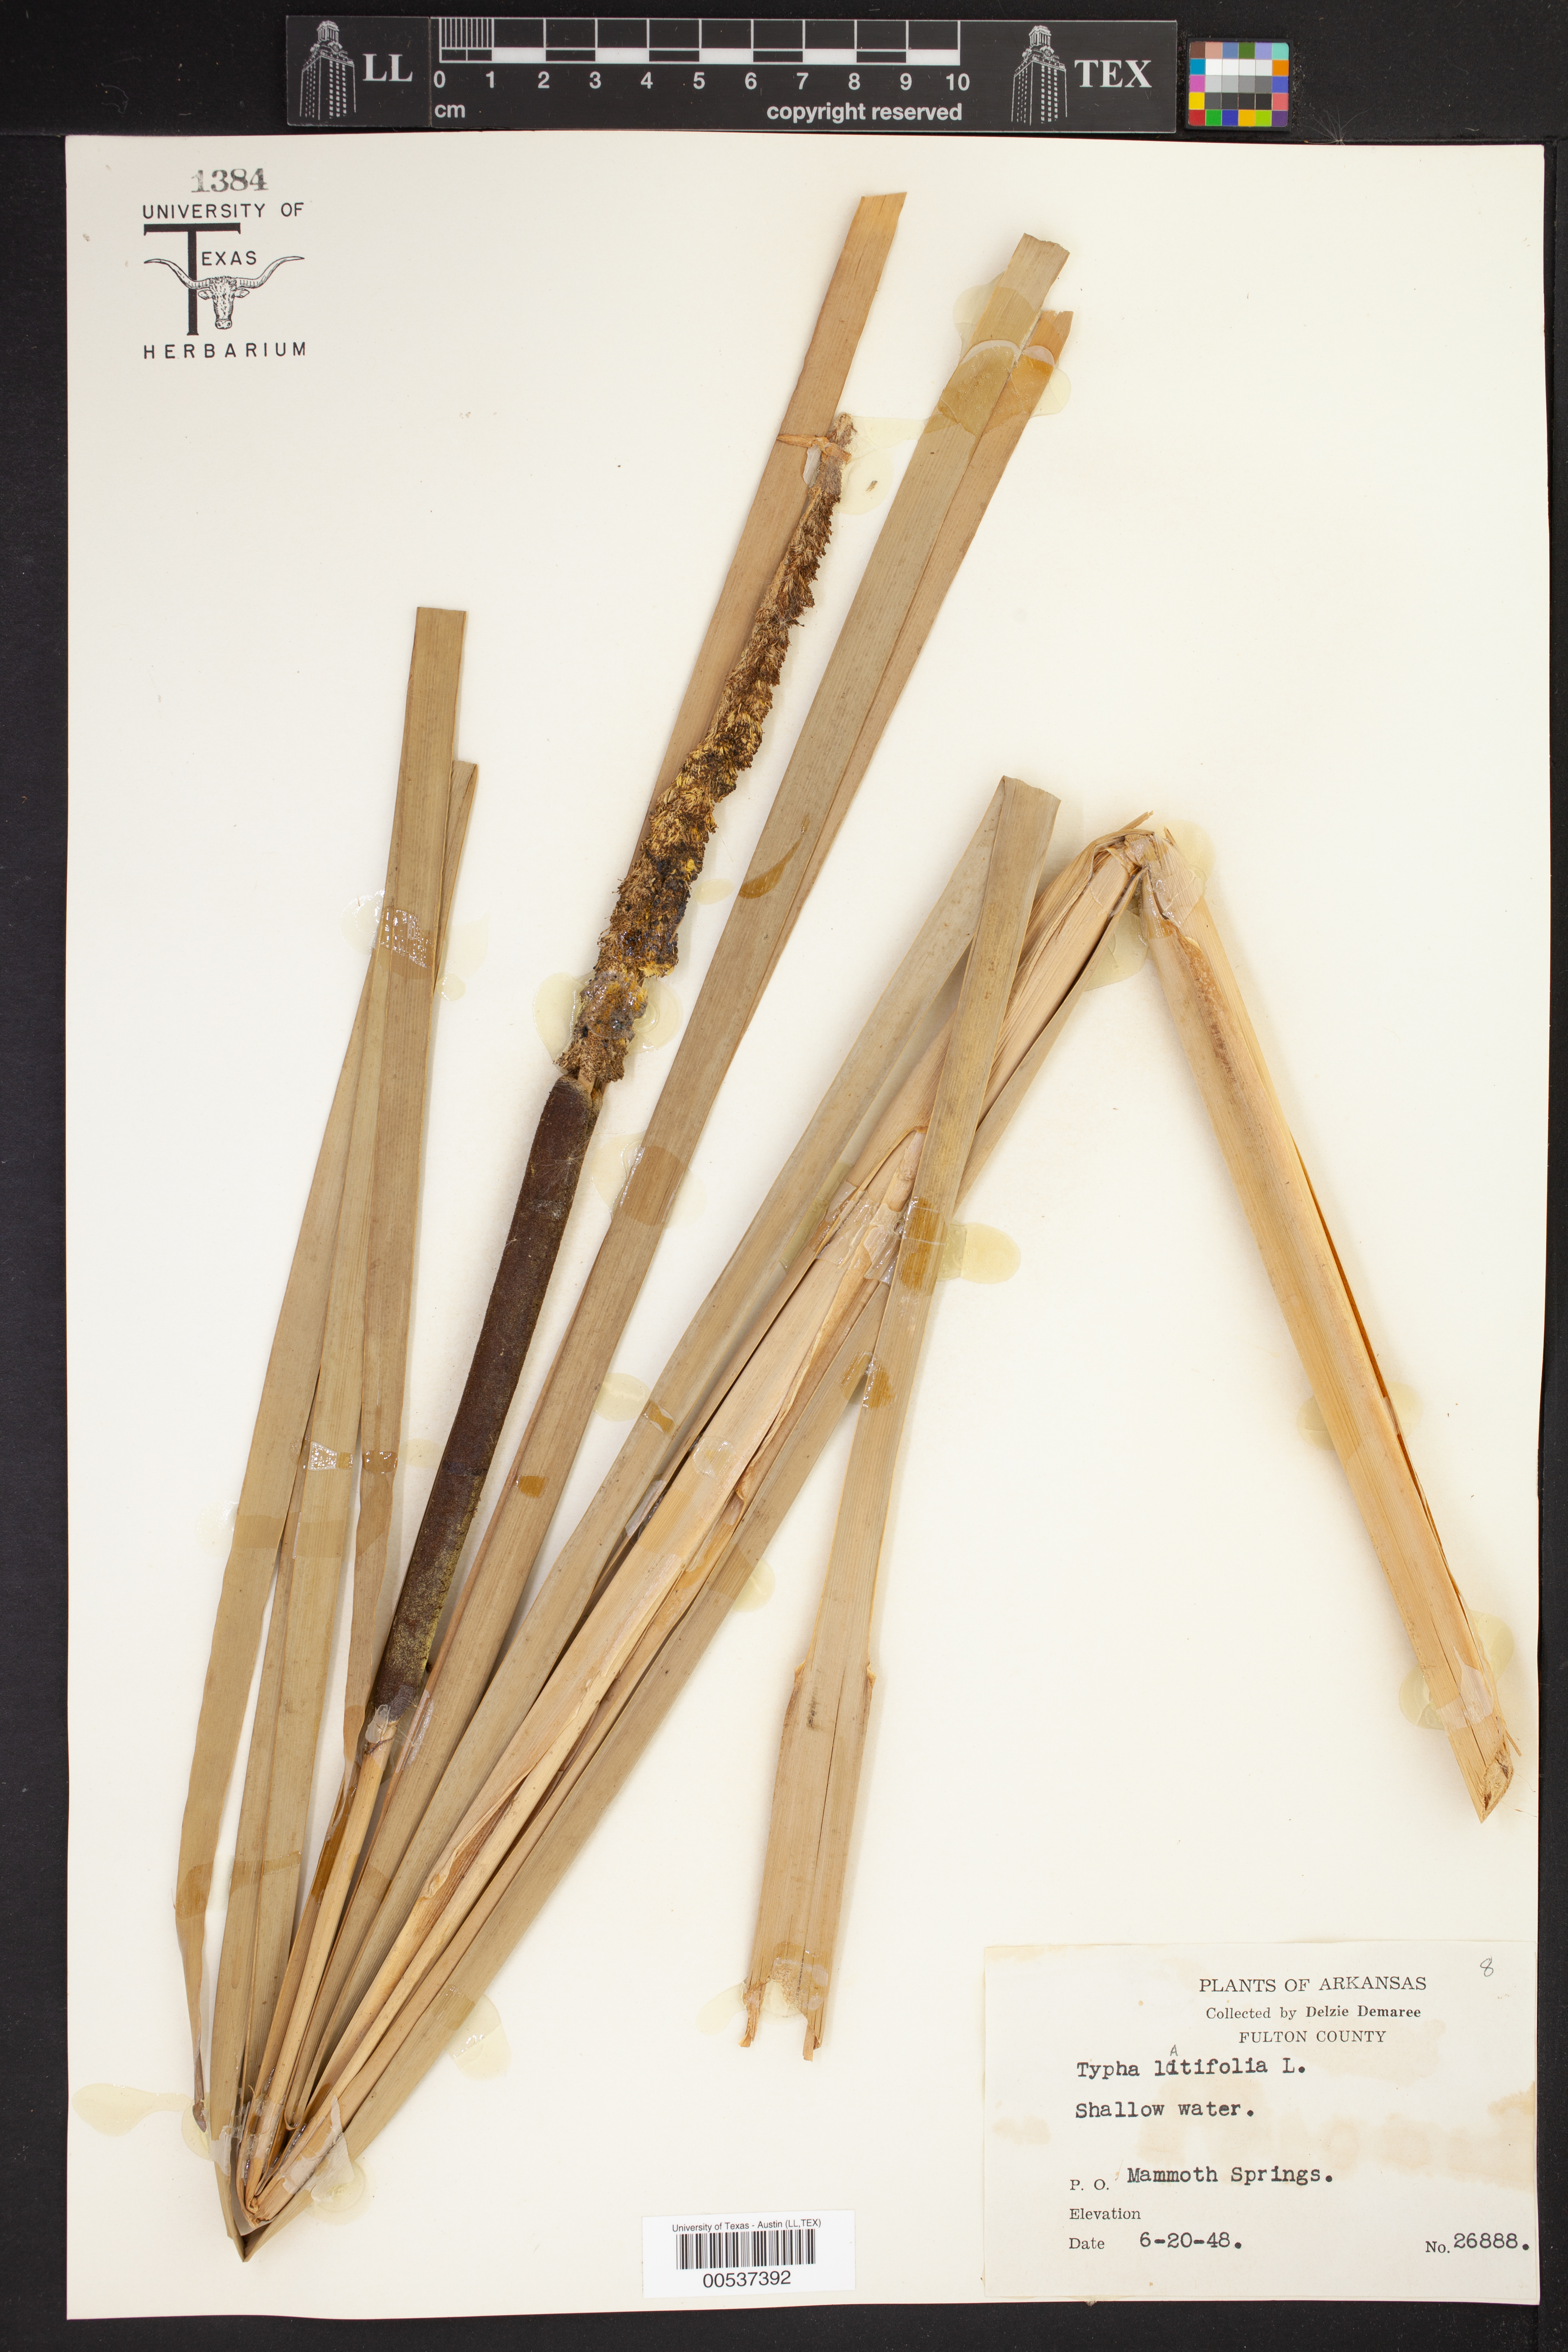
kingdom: Plantae
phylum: Tracheophyta
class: Liliopsida
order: Poales
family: Typhaceae
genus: Typha
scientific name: Typha latifolia
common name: Broadleaf cattail
